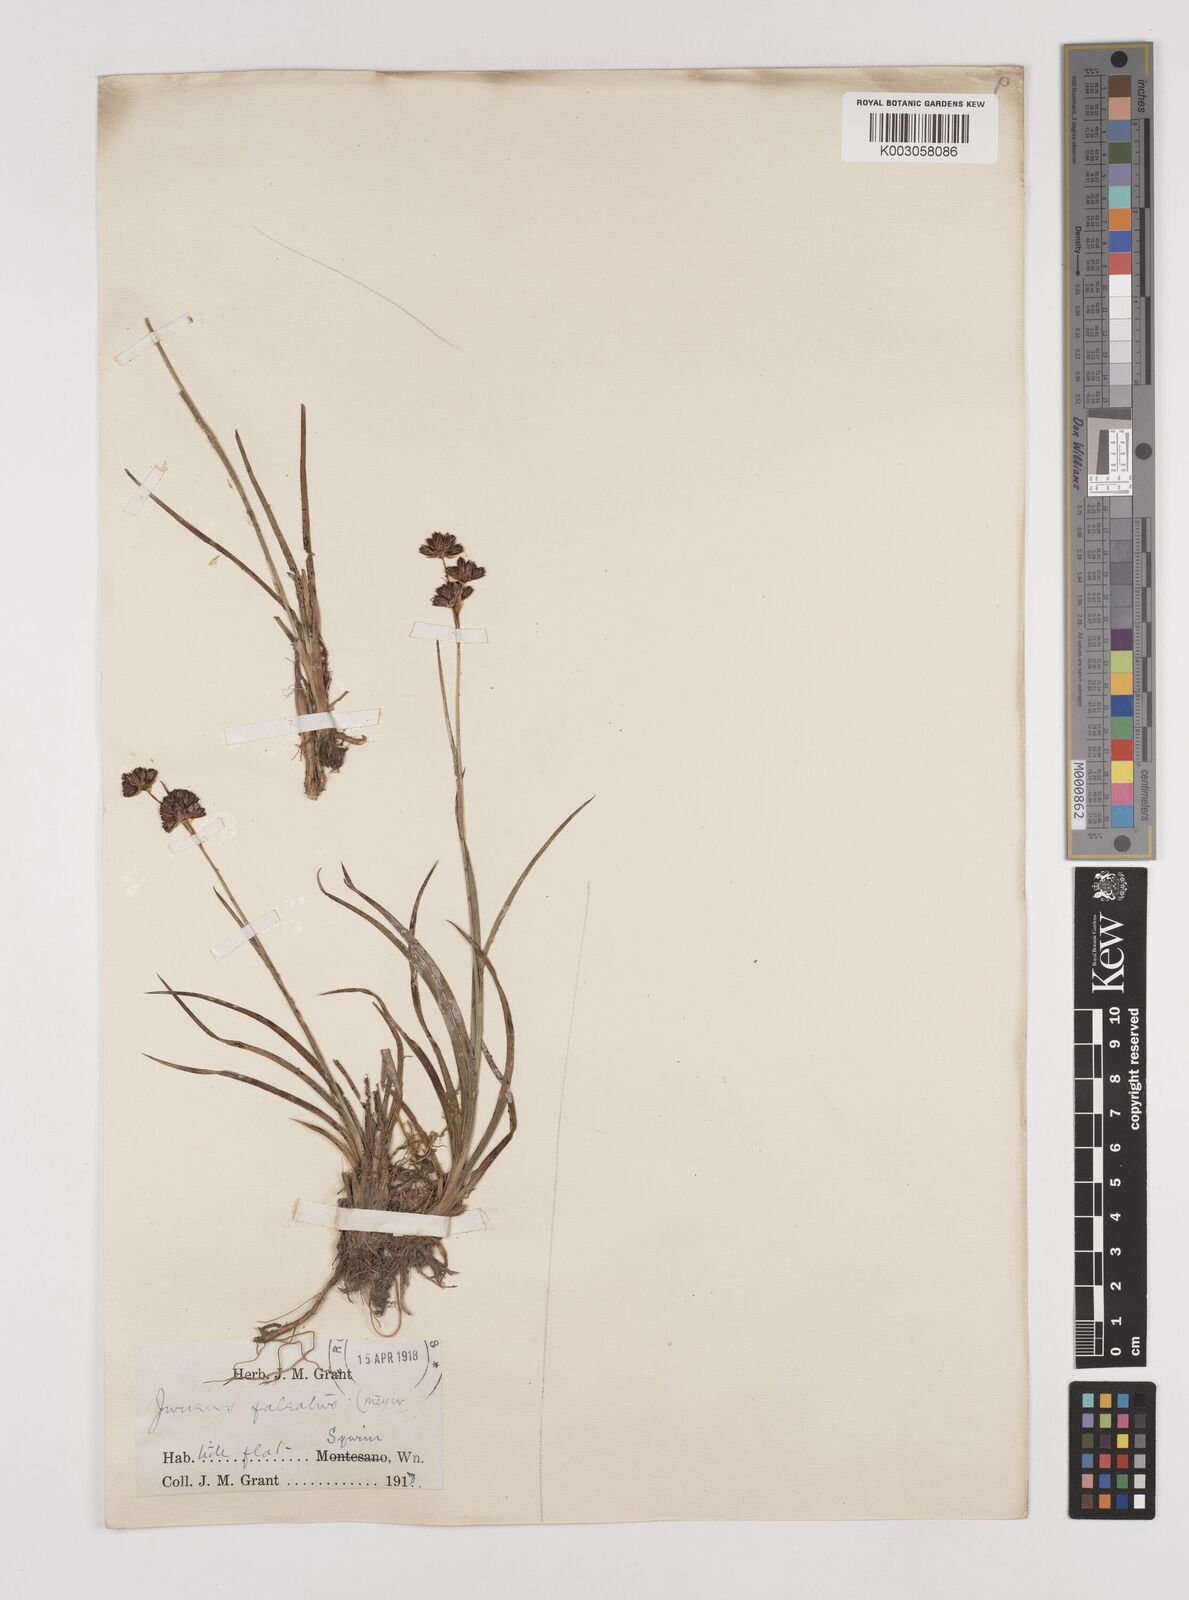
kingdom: Plantae
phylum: Tracheophyta
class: Liliopsida
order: Poales
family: Juncaceae
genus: Juncus
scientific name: Juncus falcatus
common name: Sickle-leaf rush
